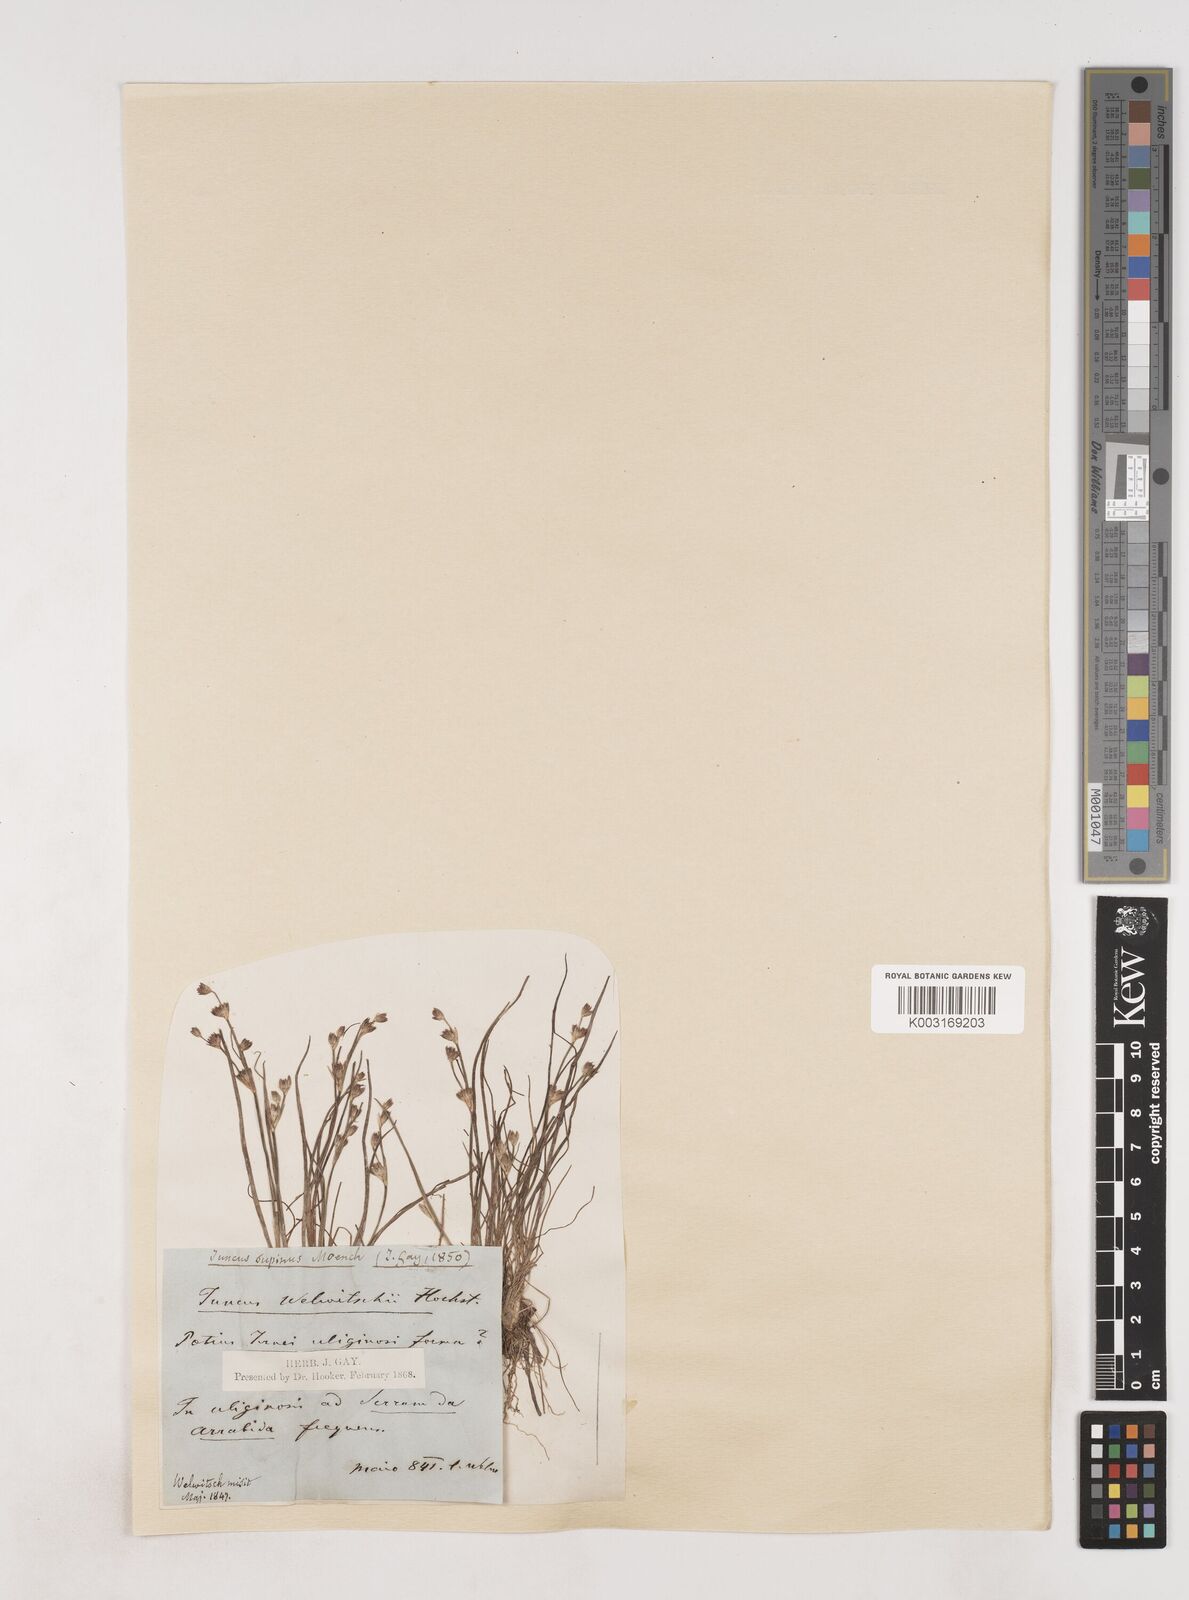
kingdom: Plantae
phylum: Tracheophyta
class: Liliopsida
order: Poales
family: Juncaceae
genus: Juncus
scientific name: Juncus bulbosus
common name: Bulbous rush
